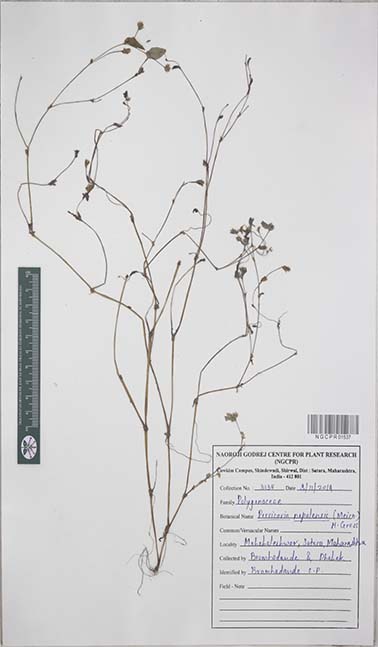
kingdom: Plantae
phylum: Tracheophyta
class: Magnoliopsida
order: Caryophyllales
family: Polygonaceae
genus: Persicaria
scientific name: Persicaria nepalensis
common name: Nepal persicaria
